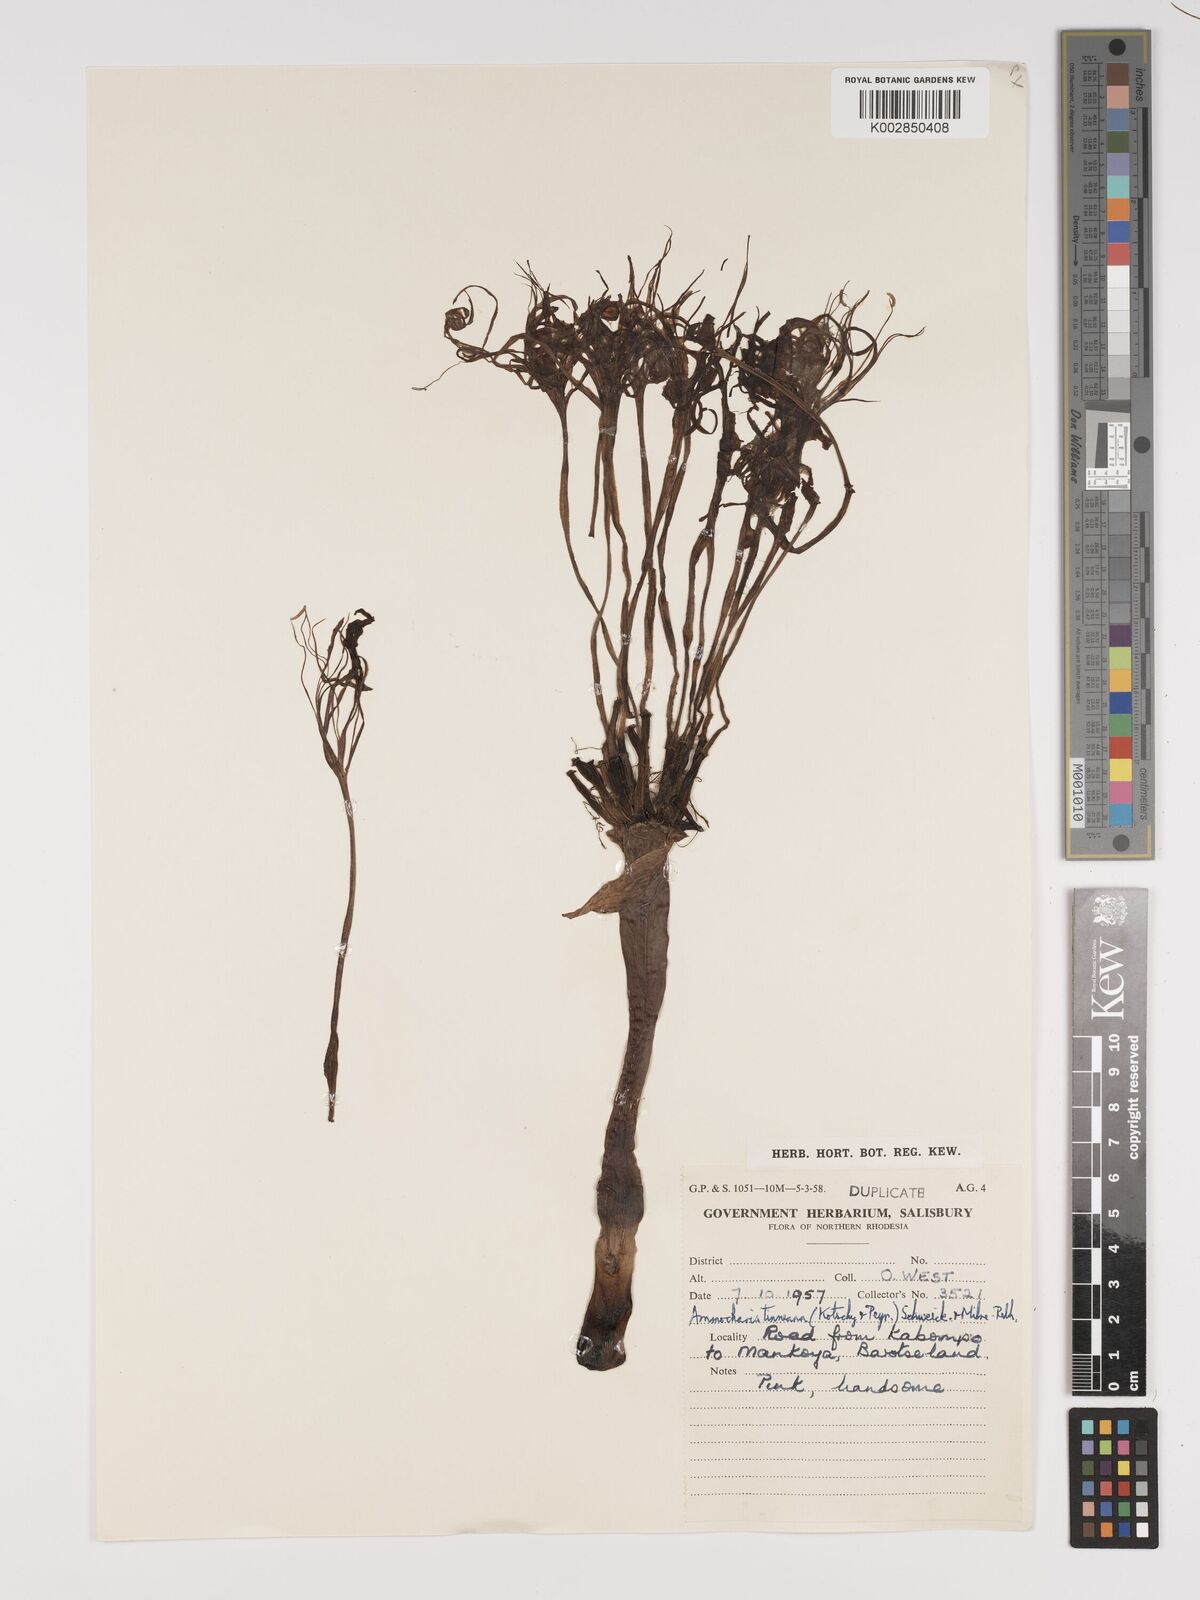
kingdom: Plantae
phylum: Tracheophyta
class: Liliopsida
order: Asparagales
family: Amaryllidaceae
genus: Ammocharis
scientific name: Ammocharis tinneana
